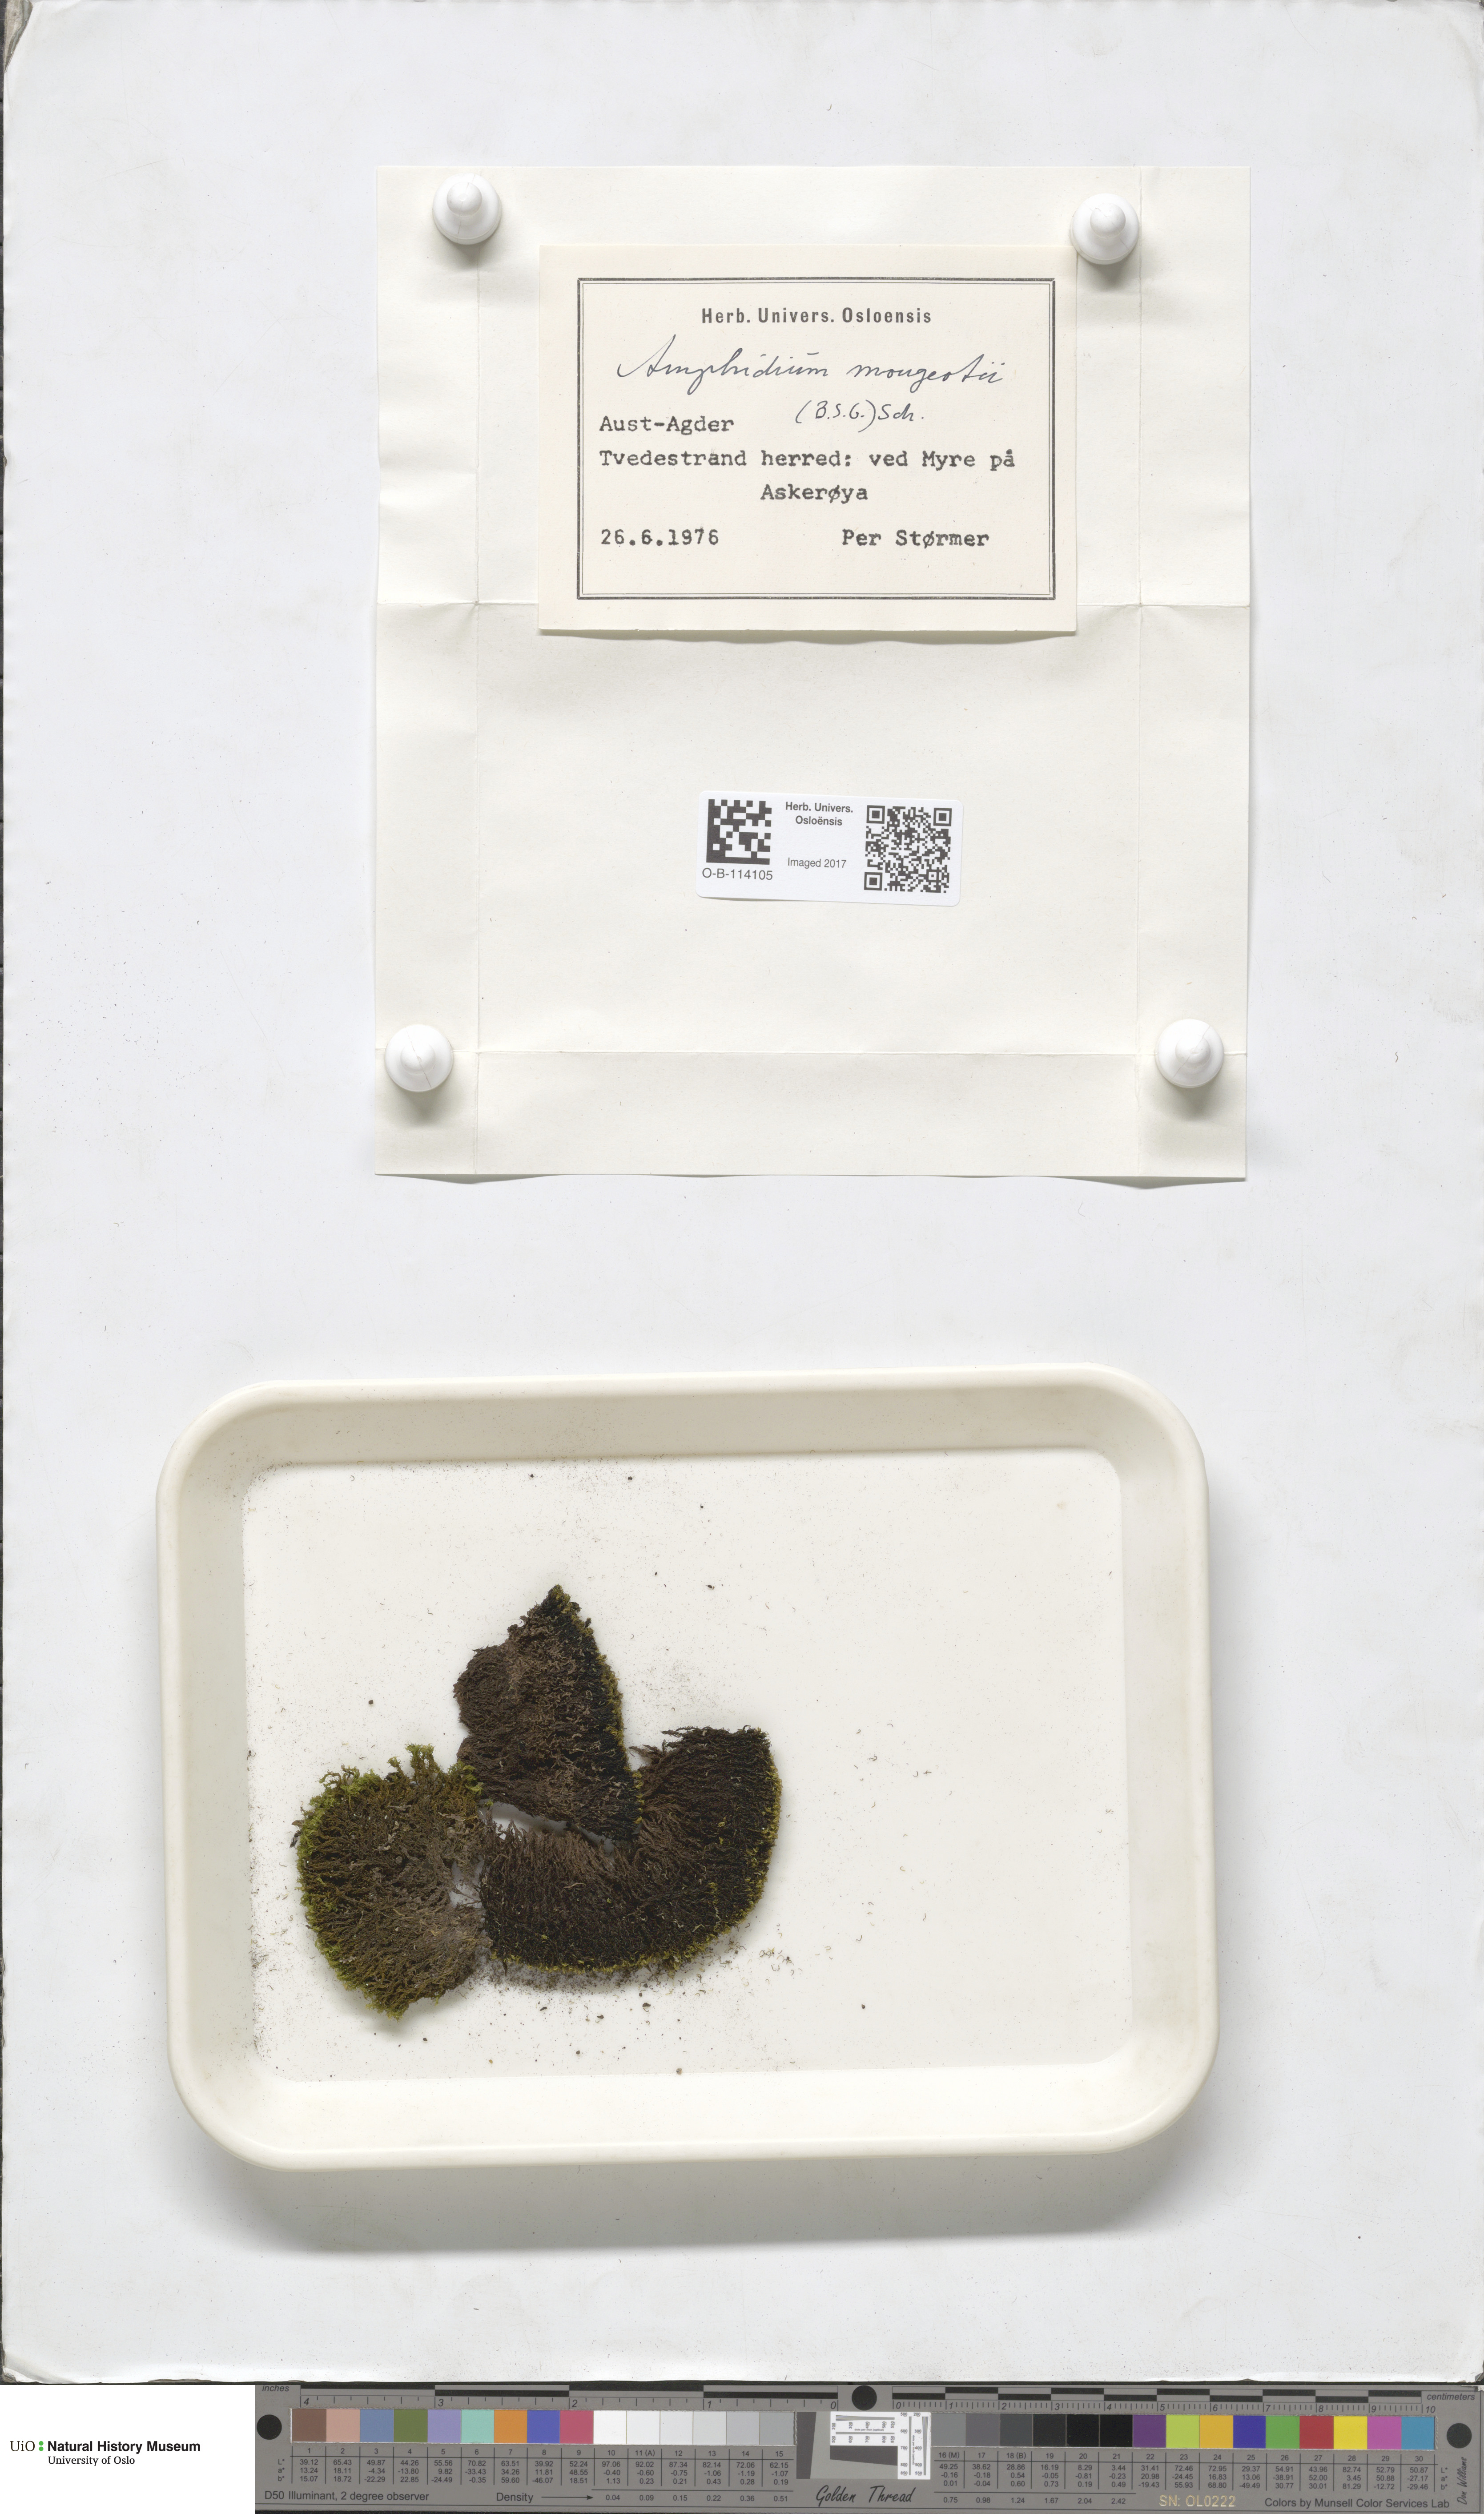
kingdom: Plantae
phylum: Bryophyta
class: Bryopsida
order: Dicranales
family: Amphidiaceae
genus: Amphidium
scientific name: Amphidium mougeotii
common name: Mougeot's yoke moss
